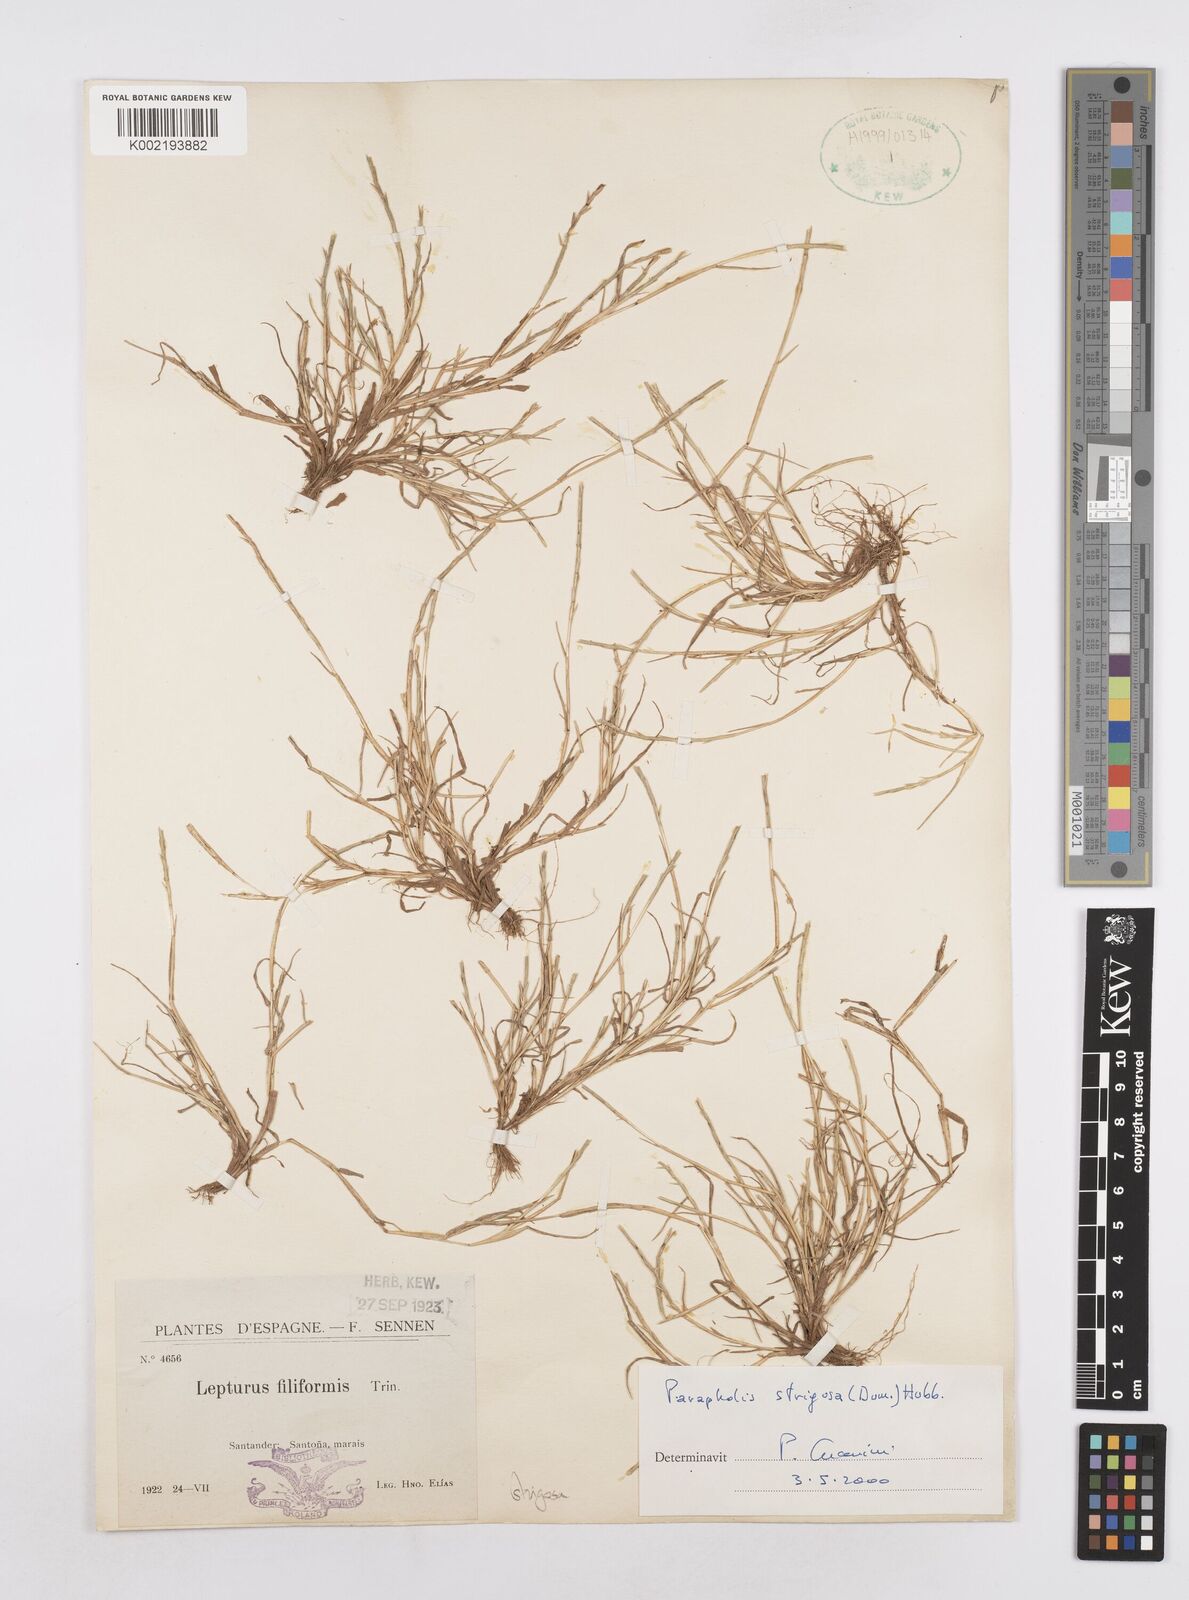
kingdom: Plantae
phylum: Tracheophyta
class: Liliopsida
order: Poales
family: Poaceae
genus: Parapholis
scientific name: Parapholis strigosa
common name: Hard-grass
